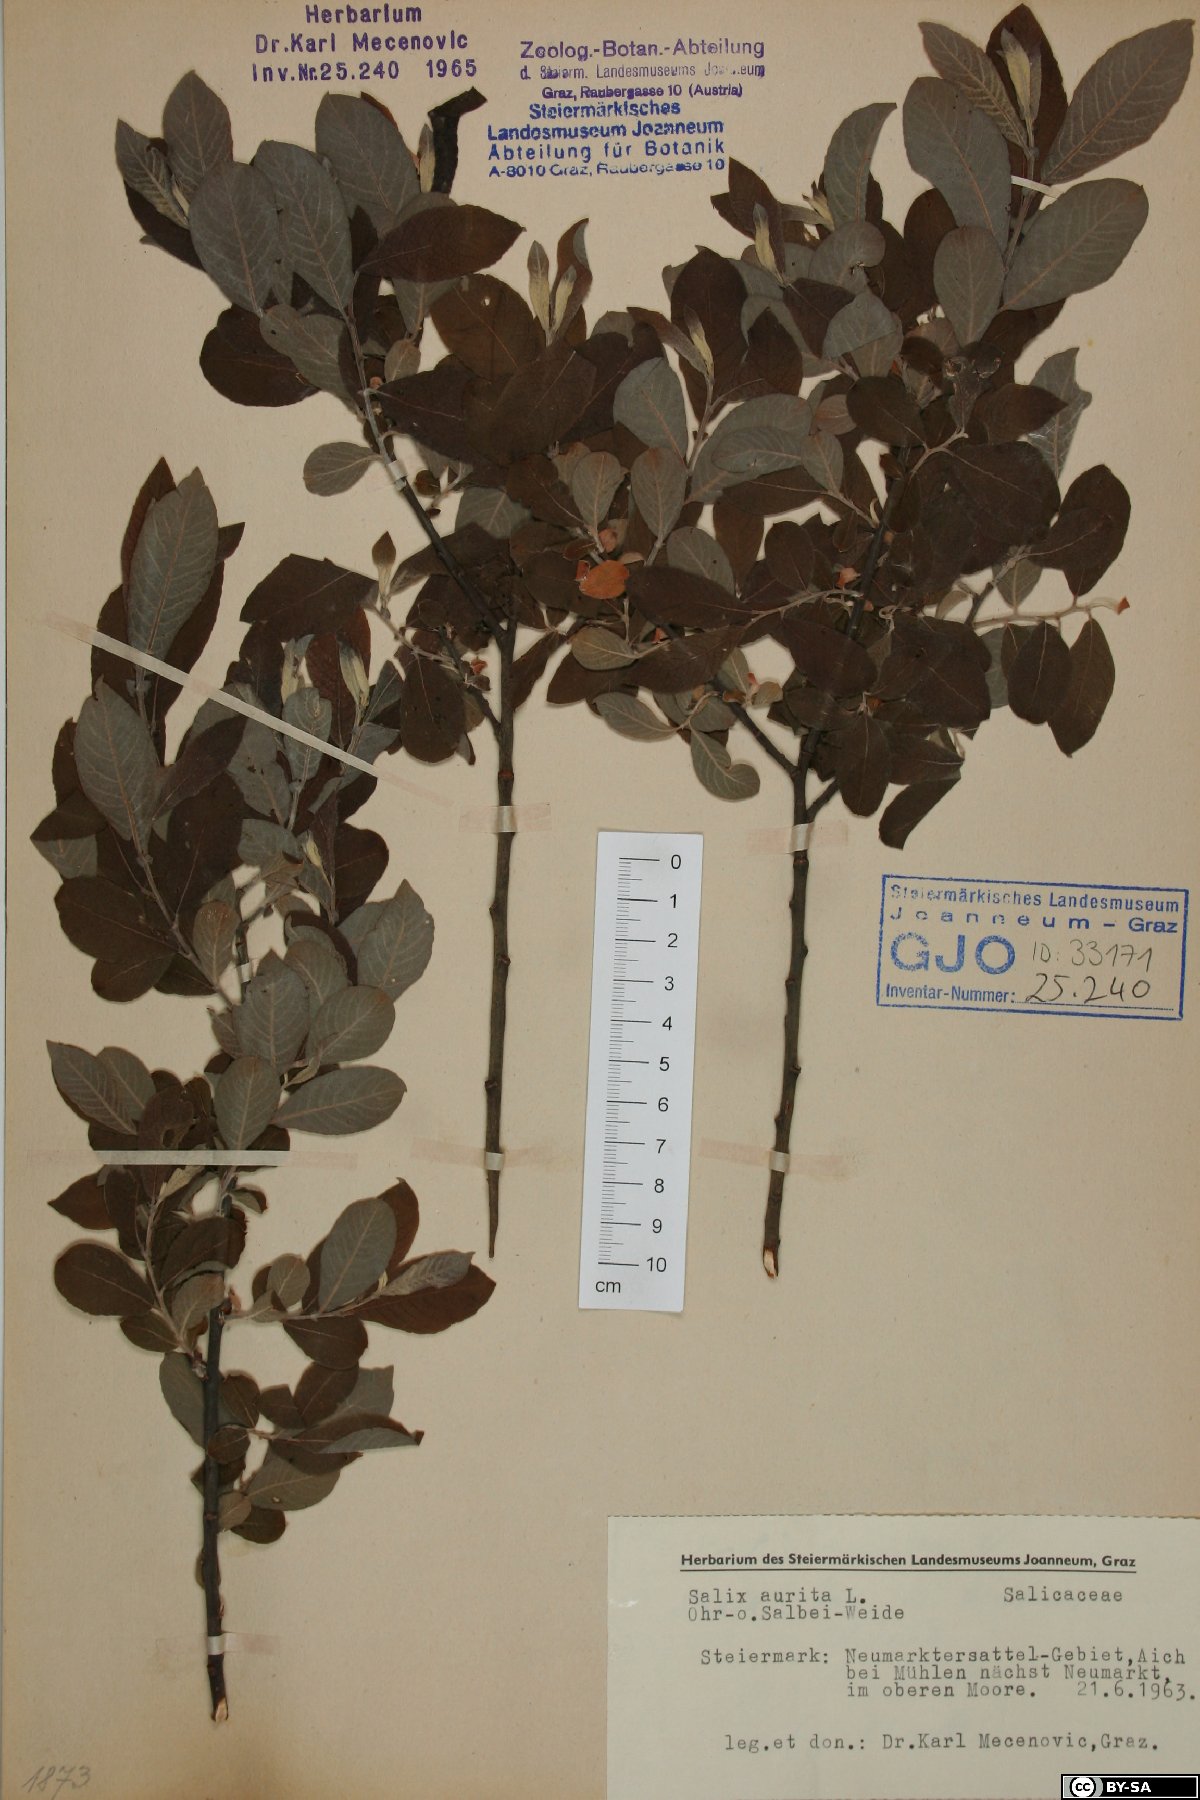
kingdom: Plantae
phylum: Tracheophyta
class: Magnoliopsida
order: Malpighiales
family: Salicaceae
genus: Salix
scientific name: Salix aurita
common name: Eared willow
